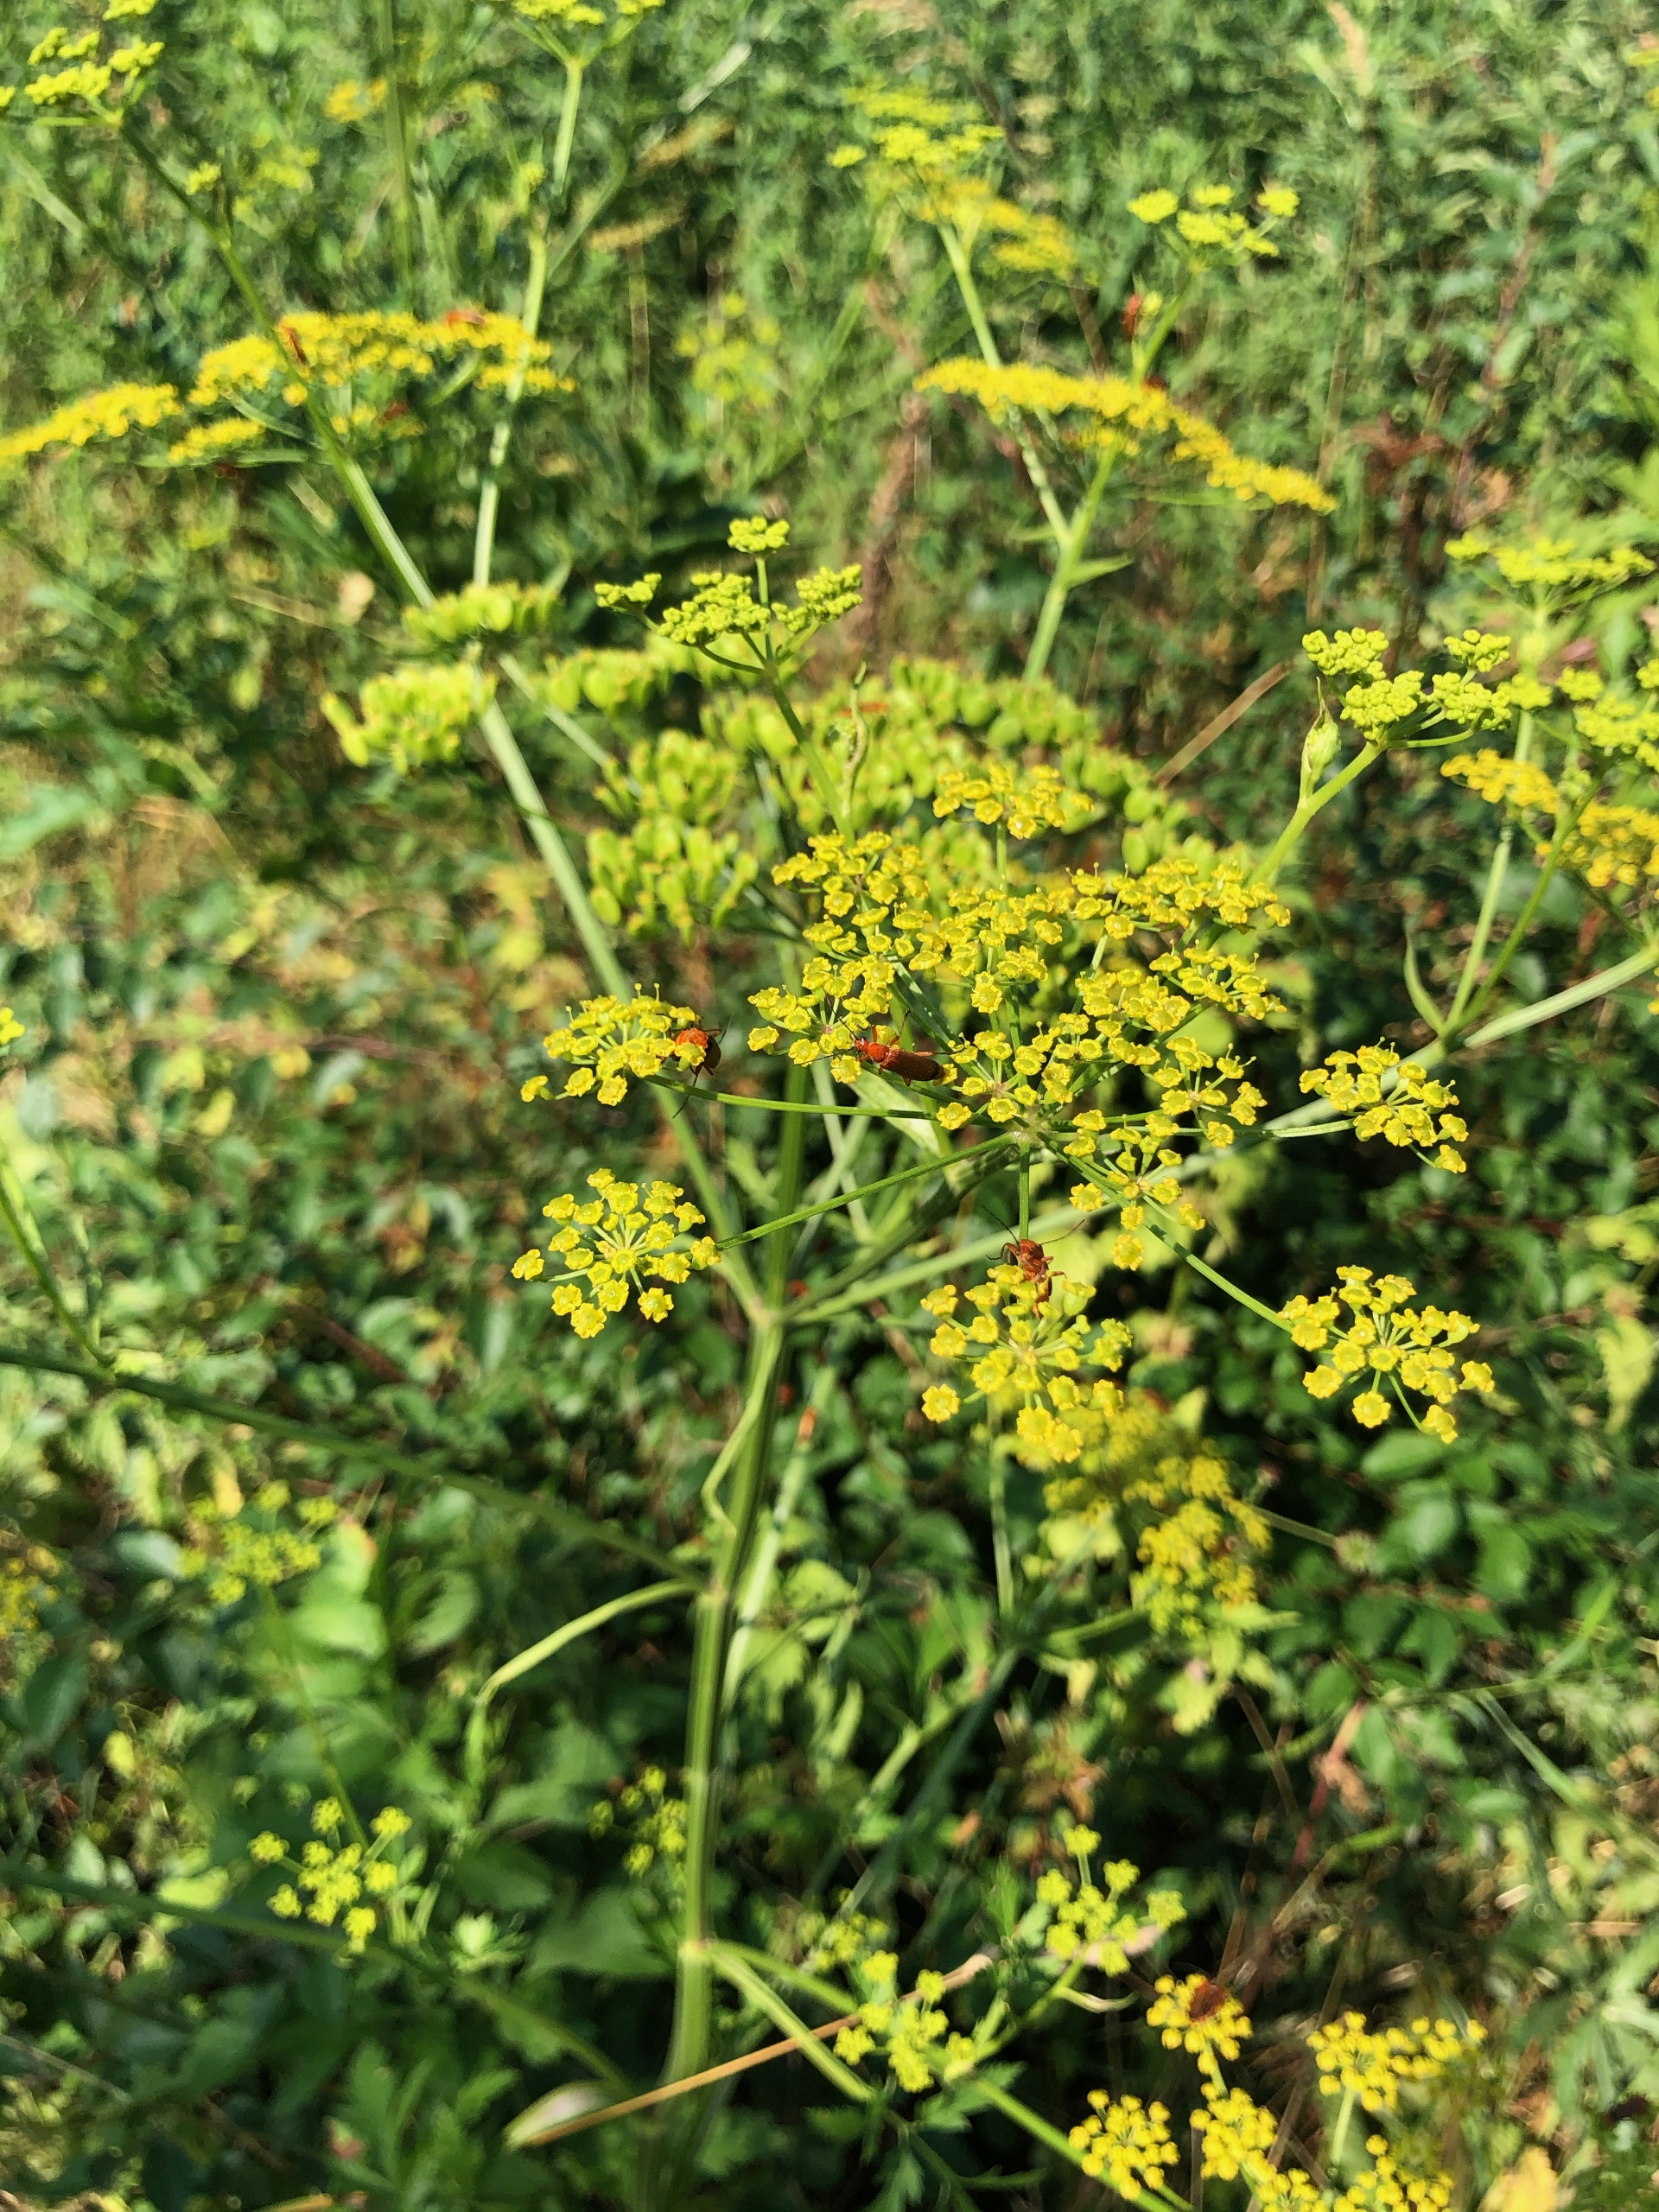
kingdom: Plantae
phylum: Tracheophyta
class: Magnoliopsida
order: Apiales
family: Apiaceae
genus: Pastinaca
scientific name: Pastinaca sativa
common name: Pastinak
